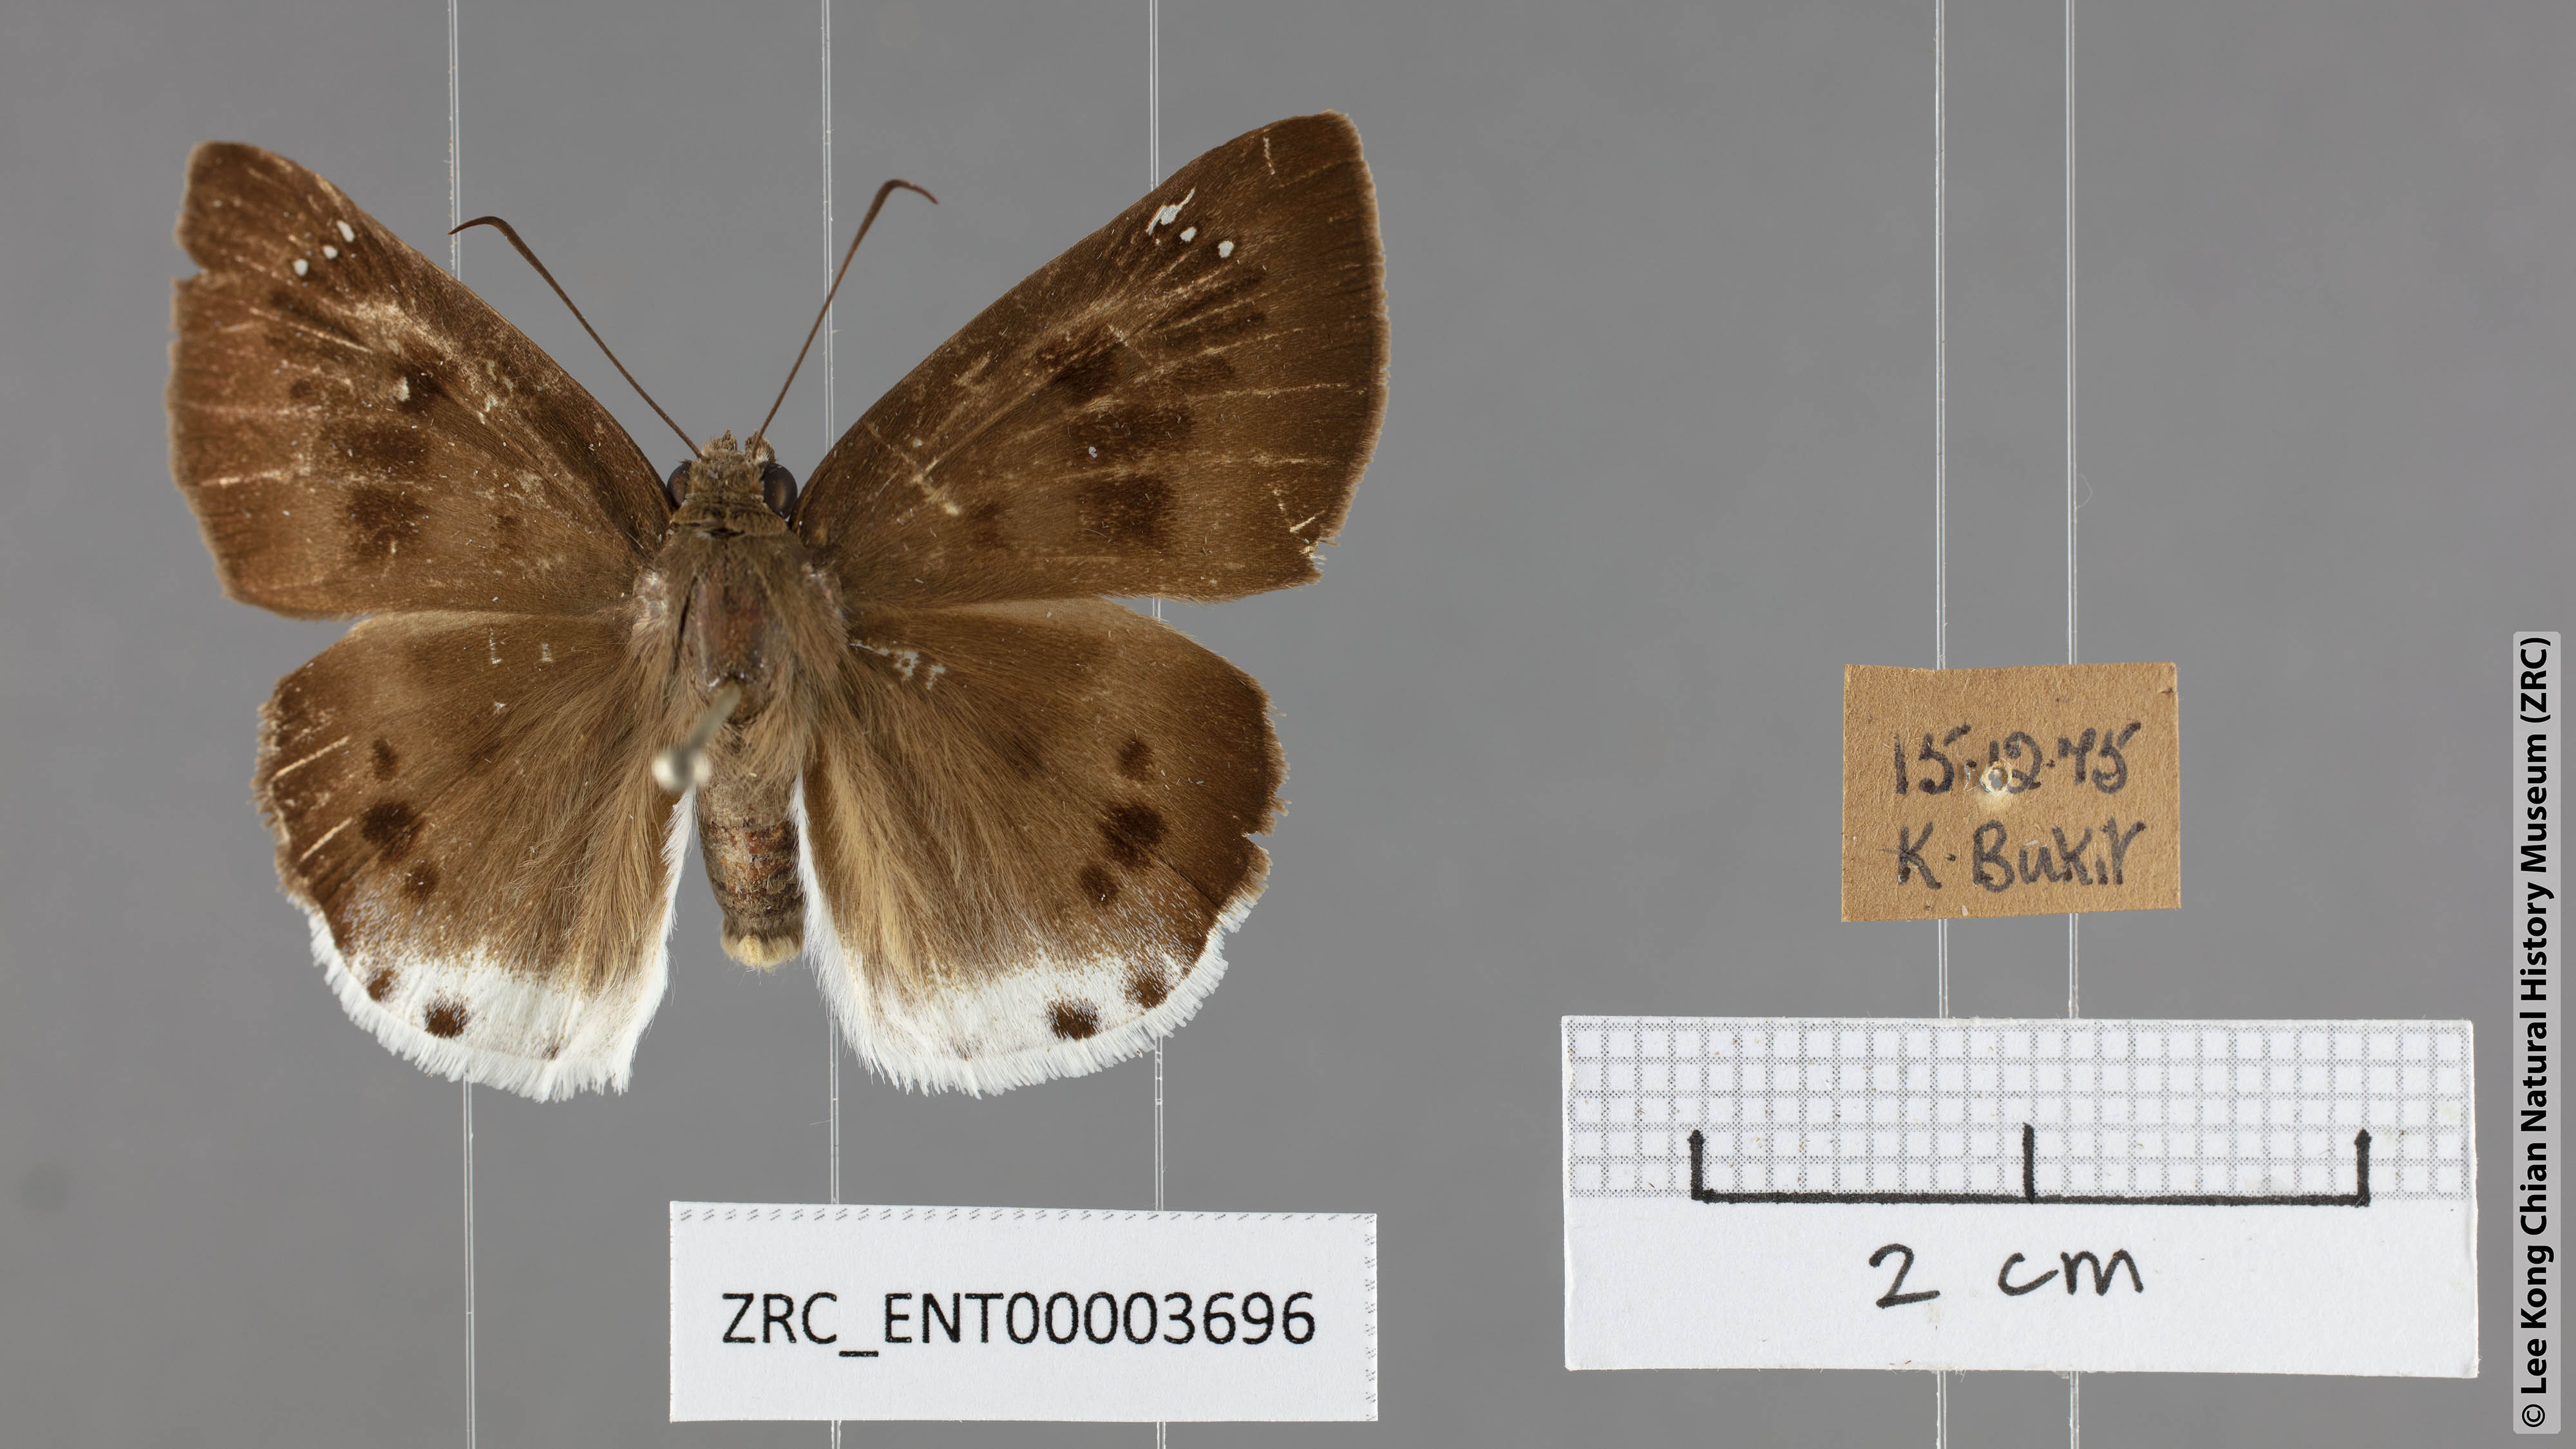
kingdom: Animalia
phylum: Arthropoda
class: Insecta
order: Lepidoptera
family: Hesperiidae
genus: Tagiades
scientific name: Tagiades gana
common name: Suffused snow flat
